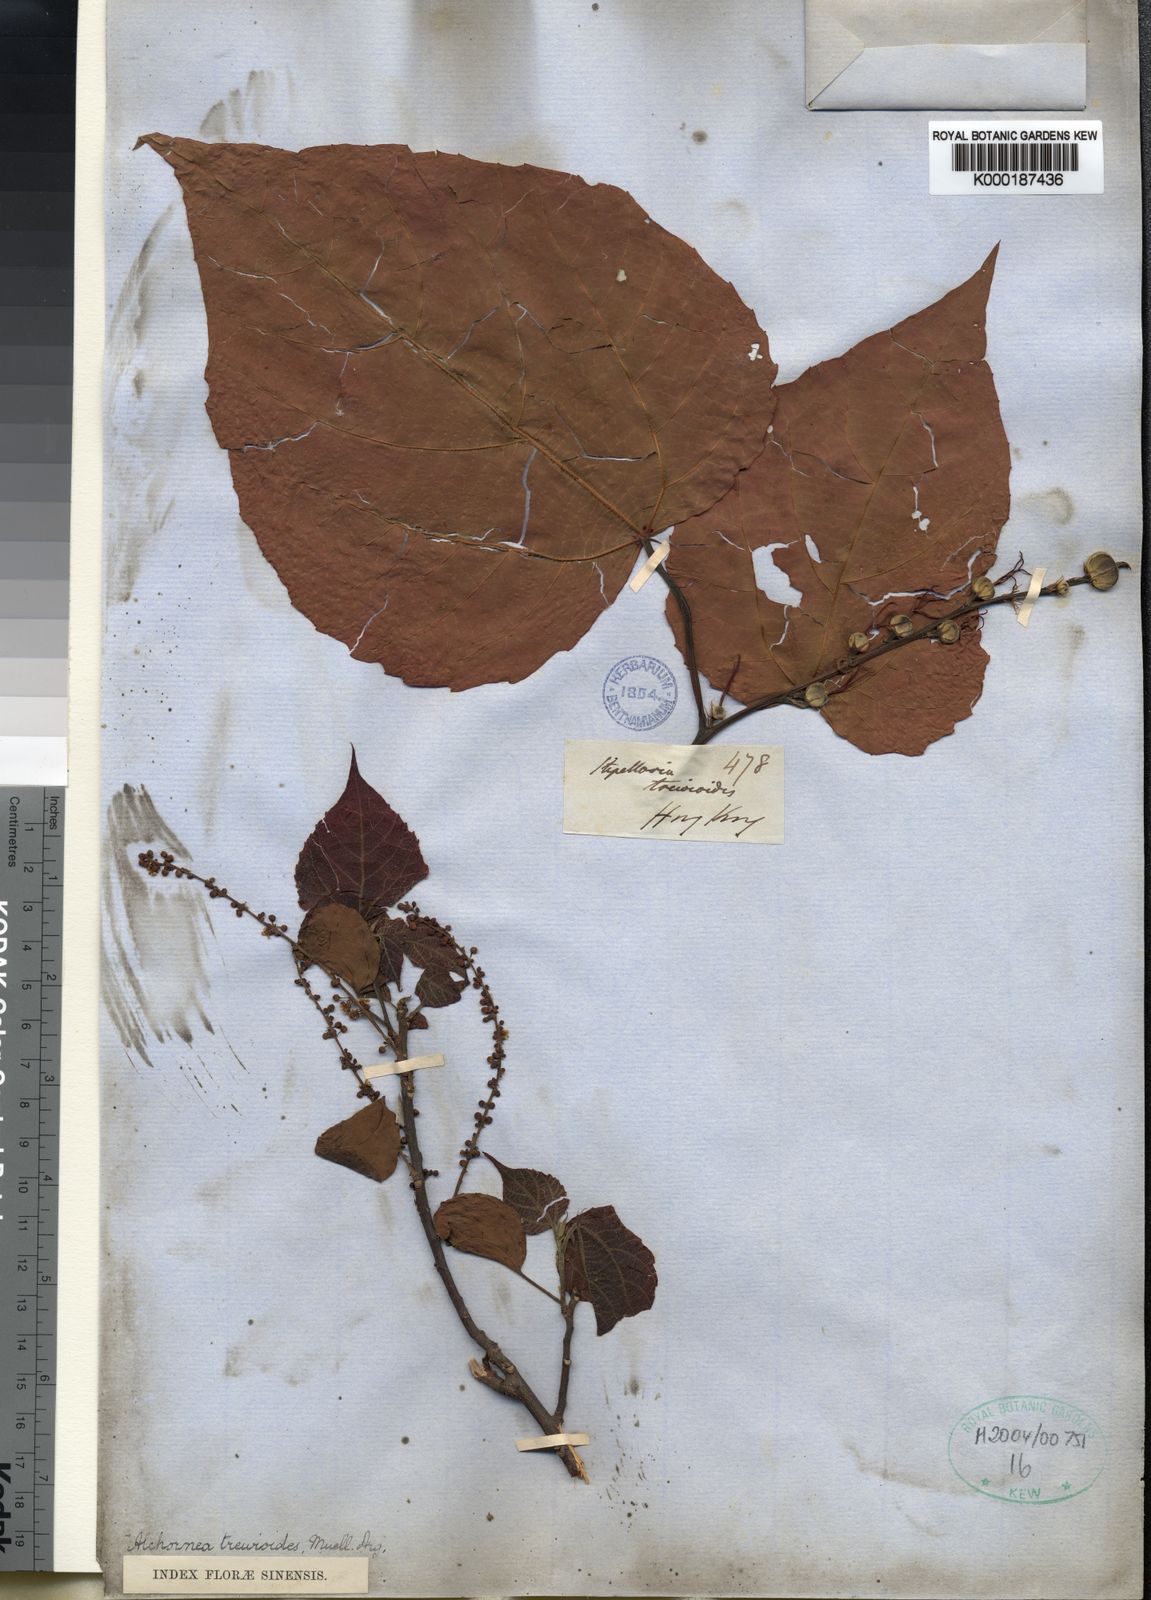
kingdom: Plantae
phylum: Tracheophyta
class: Magnoliopsida
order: Malpighiales
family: Euphorbiaceae
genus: Alchornea
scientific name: Alchornea
